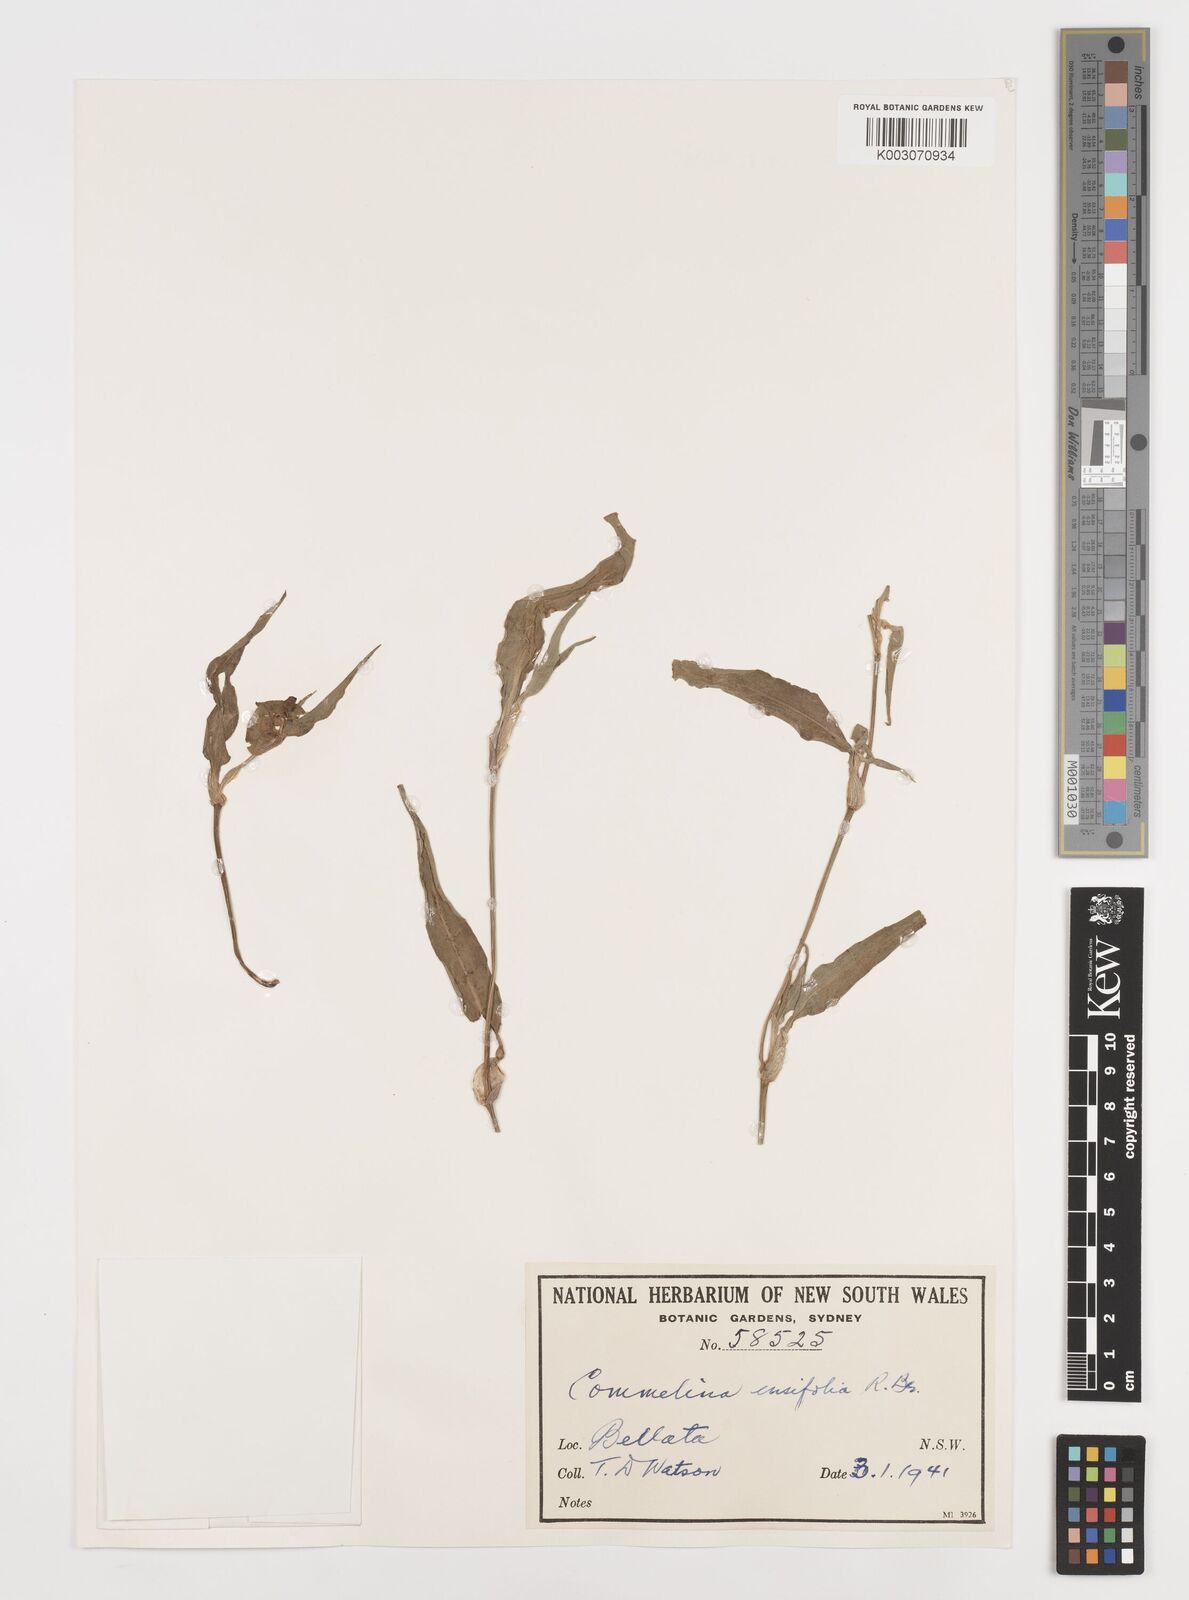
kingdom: Plantae
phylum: Tracheophyta
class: Liliopsida
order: Commelinales
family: Commelinaceae
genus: Commelina
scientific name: Commelina ensifolia
